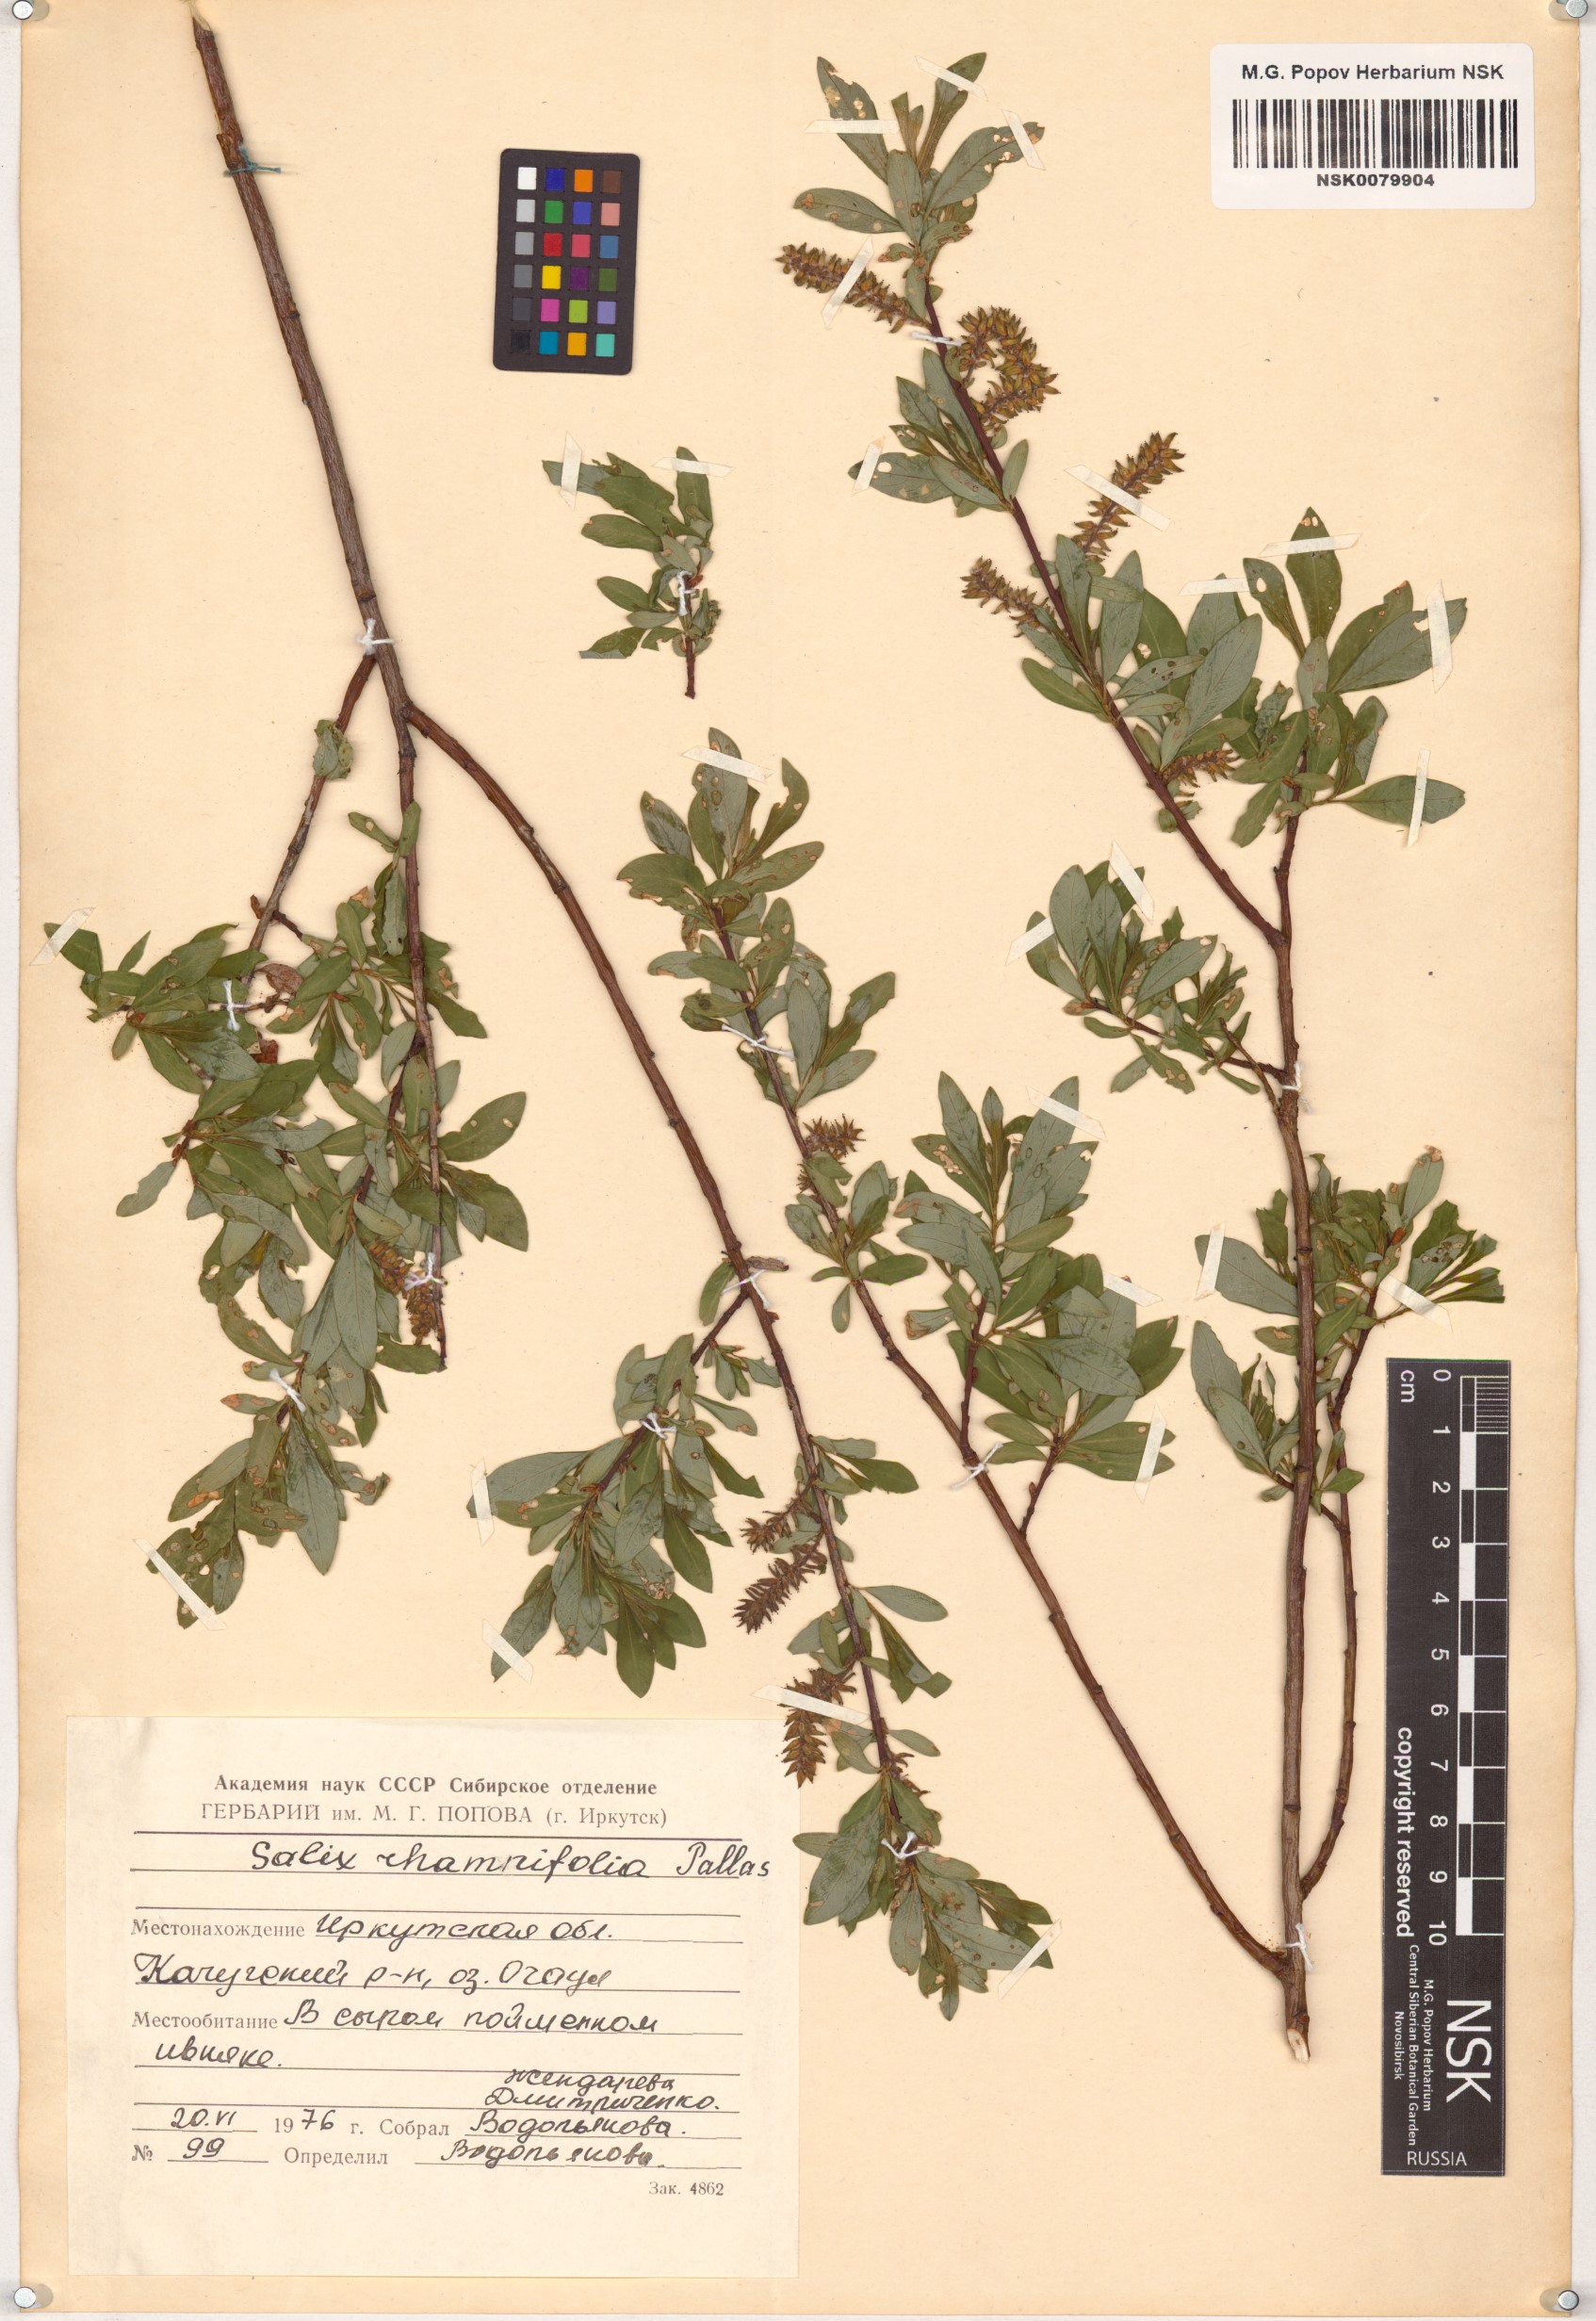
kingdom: Plantae
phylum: Tracheophyta
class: Magnoliopsida
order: Malpighiales
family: Salicaceae
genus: Salix
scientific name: Salix rhamnifolia
